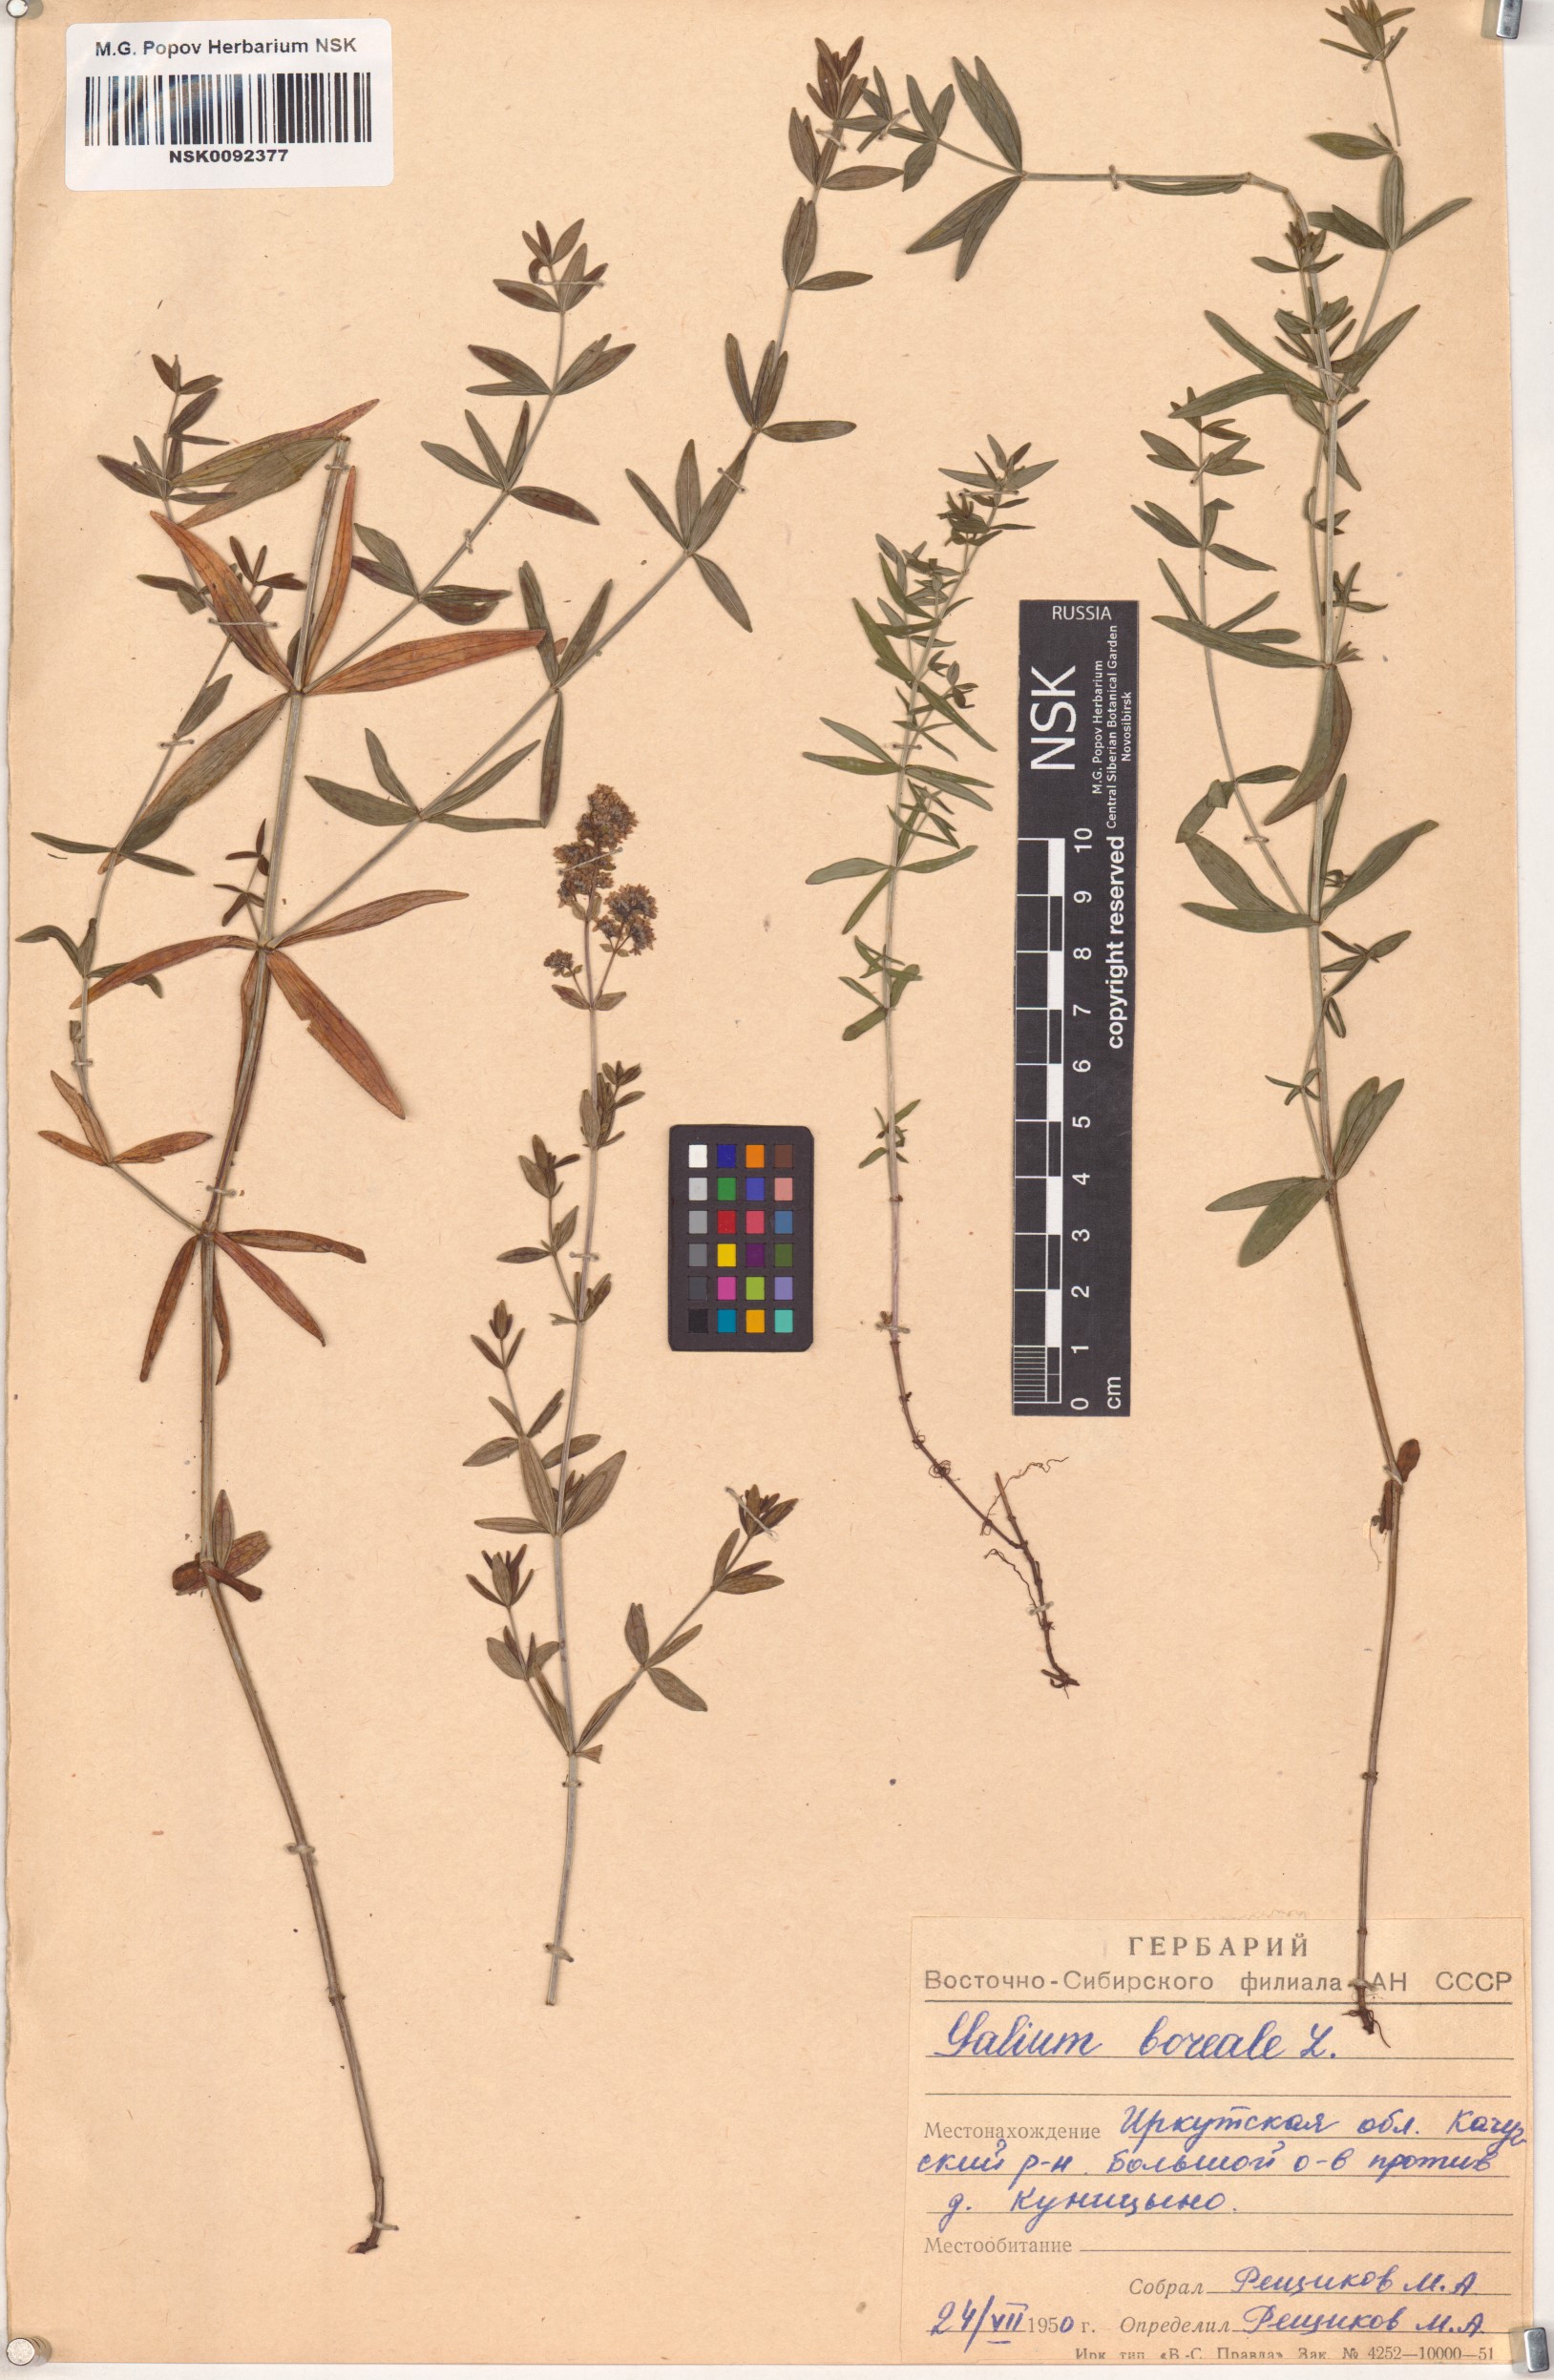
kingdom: Plantae
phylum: Tracheophyta
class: Magnoliopsida
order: Gentianales
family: Rubiaceae
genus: Galium
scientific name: Galium boreale
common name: Northern bedstraw
